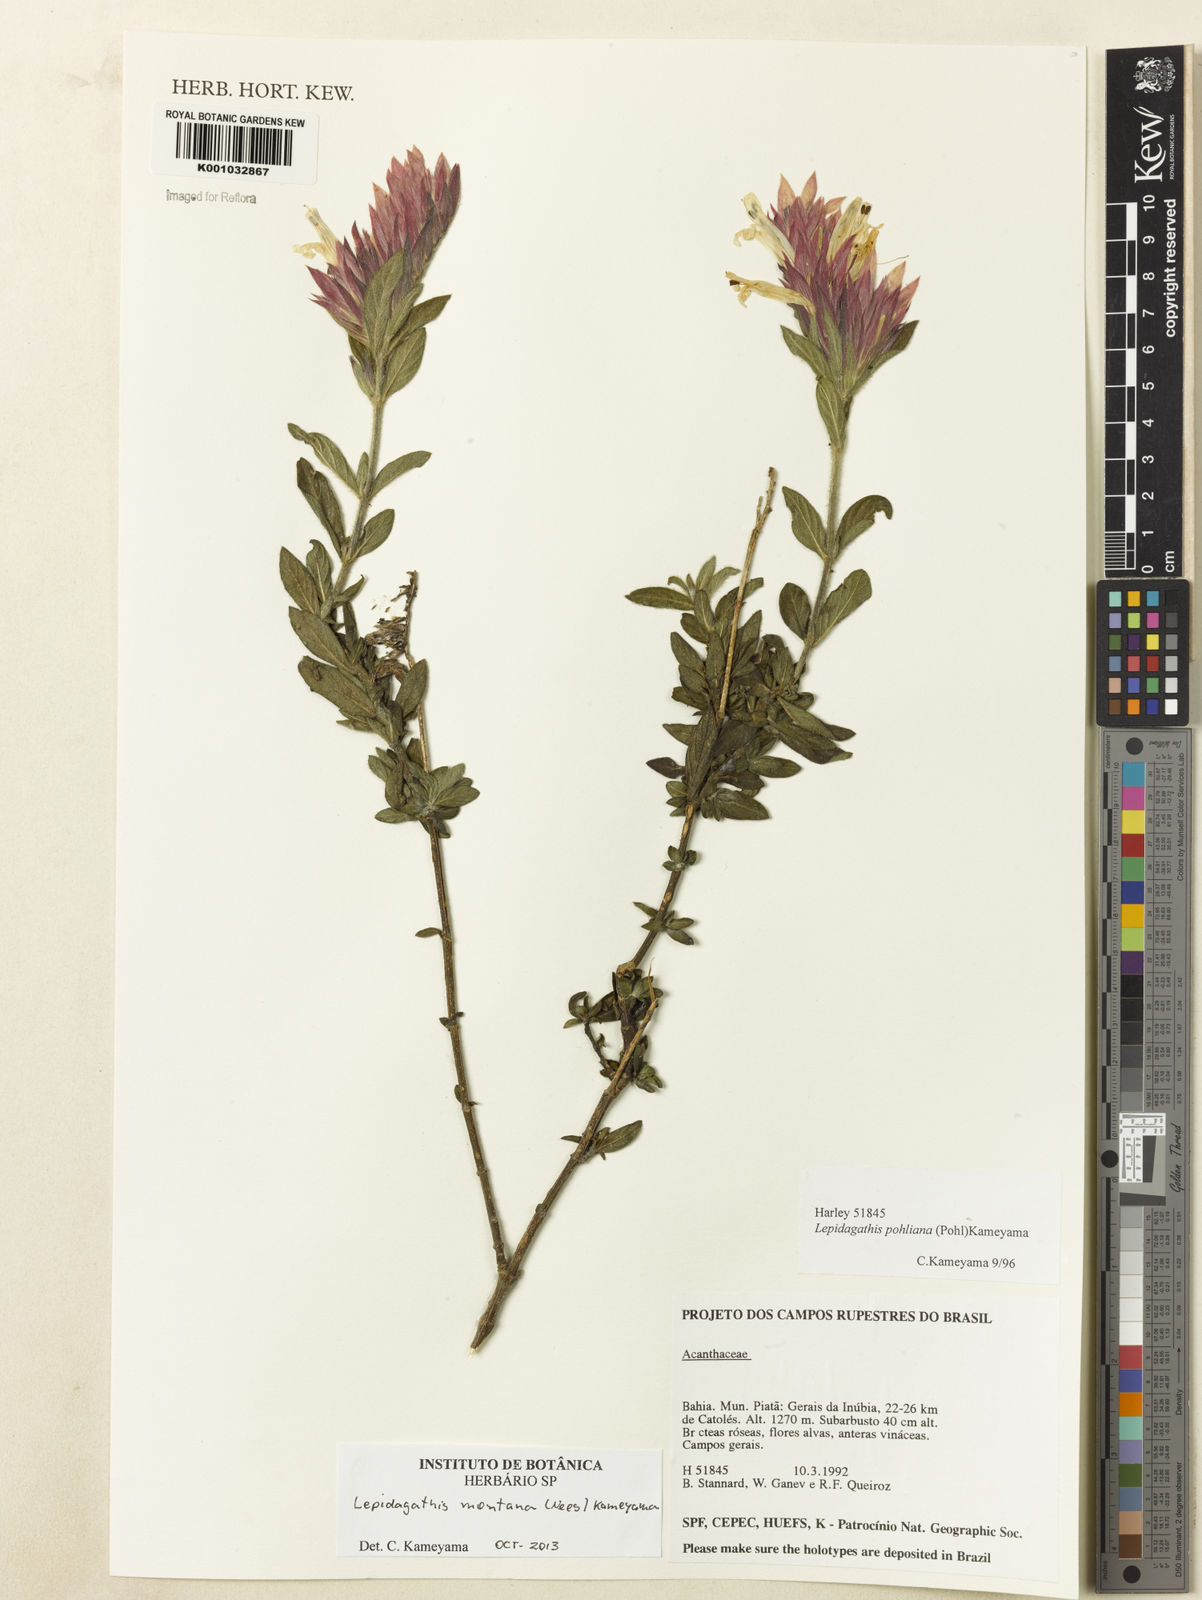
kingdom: Plantae
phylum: Tracheophyta
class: Magnoliopsida
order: Lamiales
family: Acanthaceae
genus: Lepidagathis
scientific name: Lepidagathis montana
